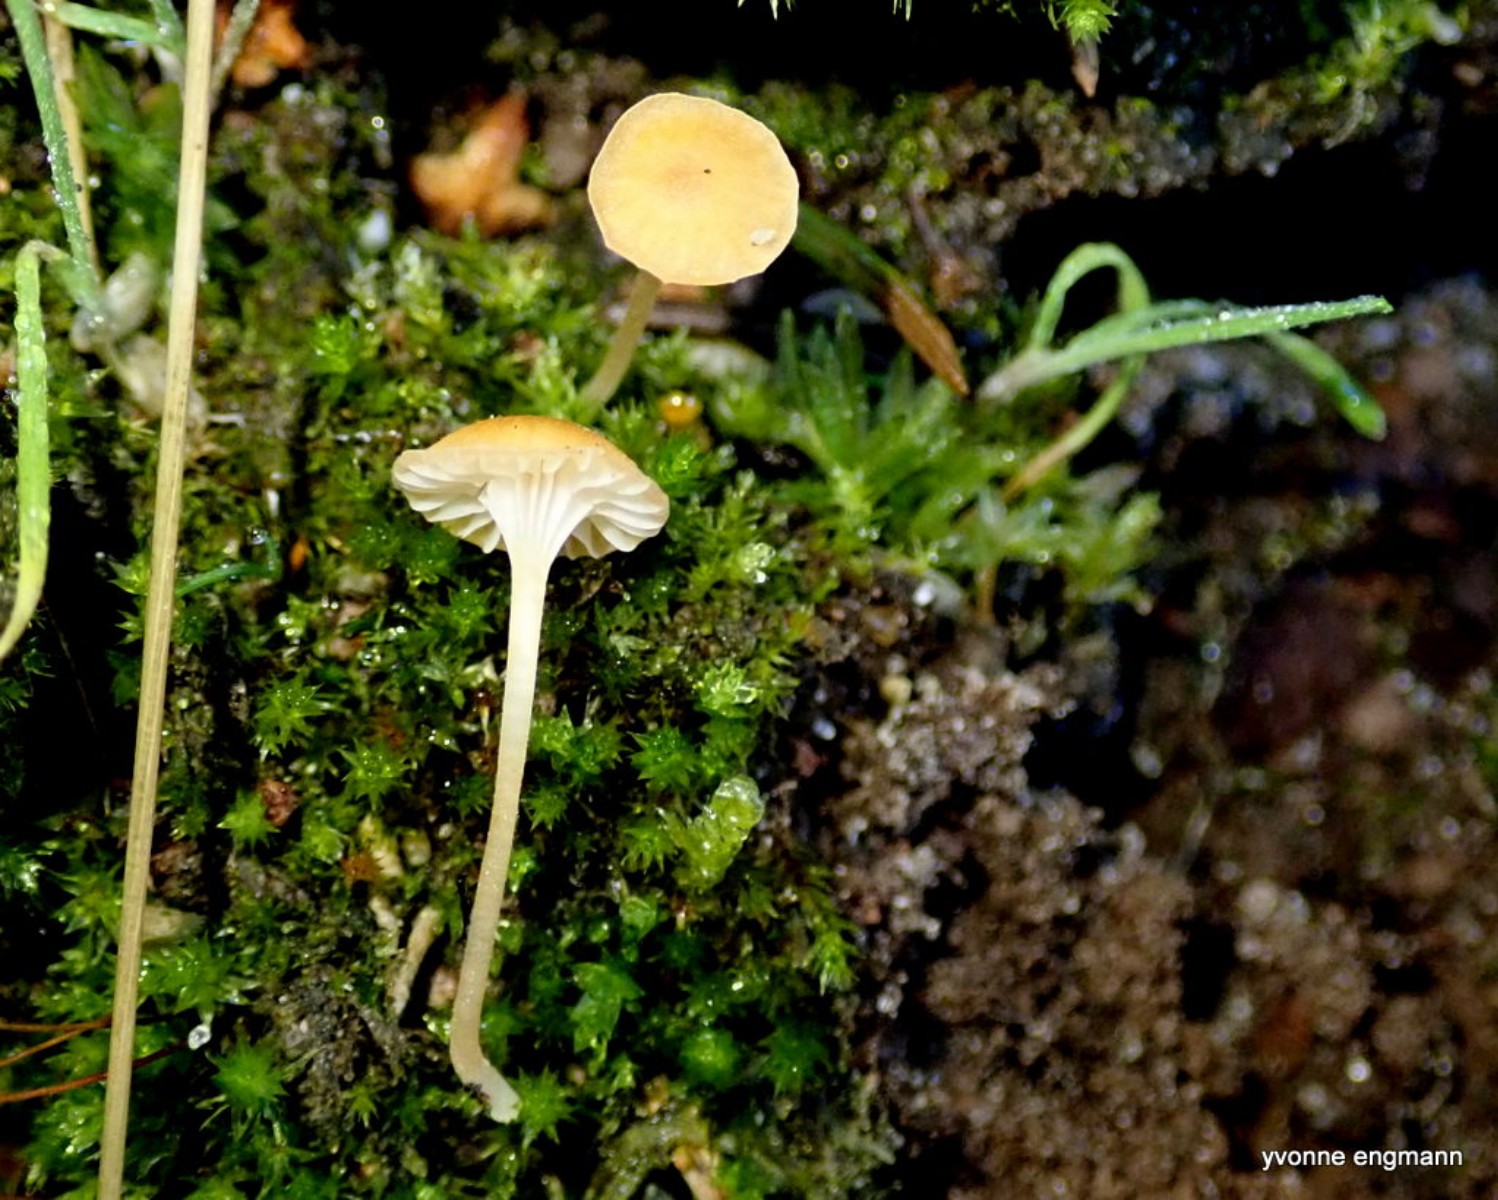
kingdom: Fungi
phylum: Basidiomycota
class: Agaricomycetes
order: Hymenochaetales
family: Rickenellaceae
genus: Rickenella
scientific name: Rickenella fibula
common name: orange mosnavlehat
